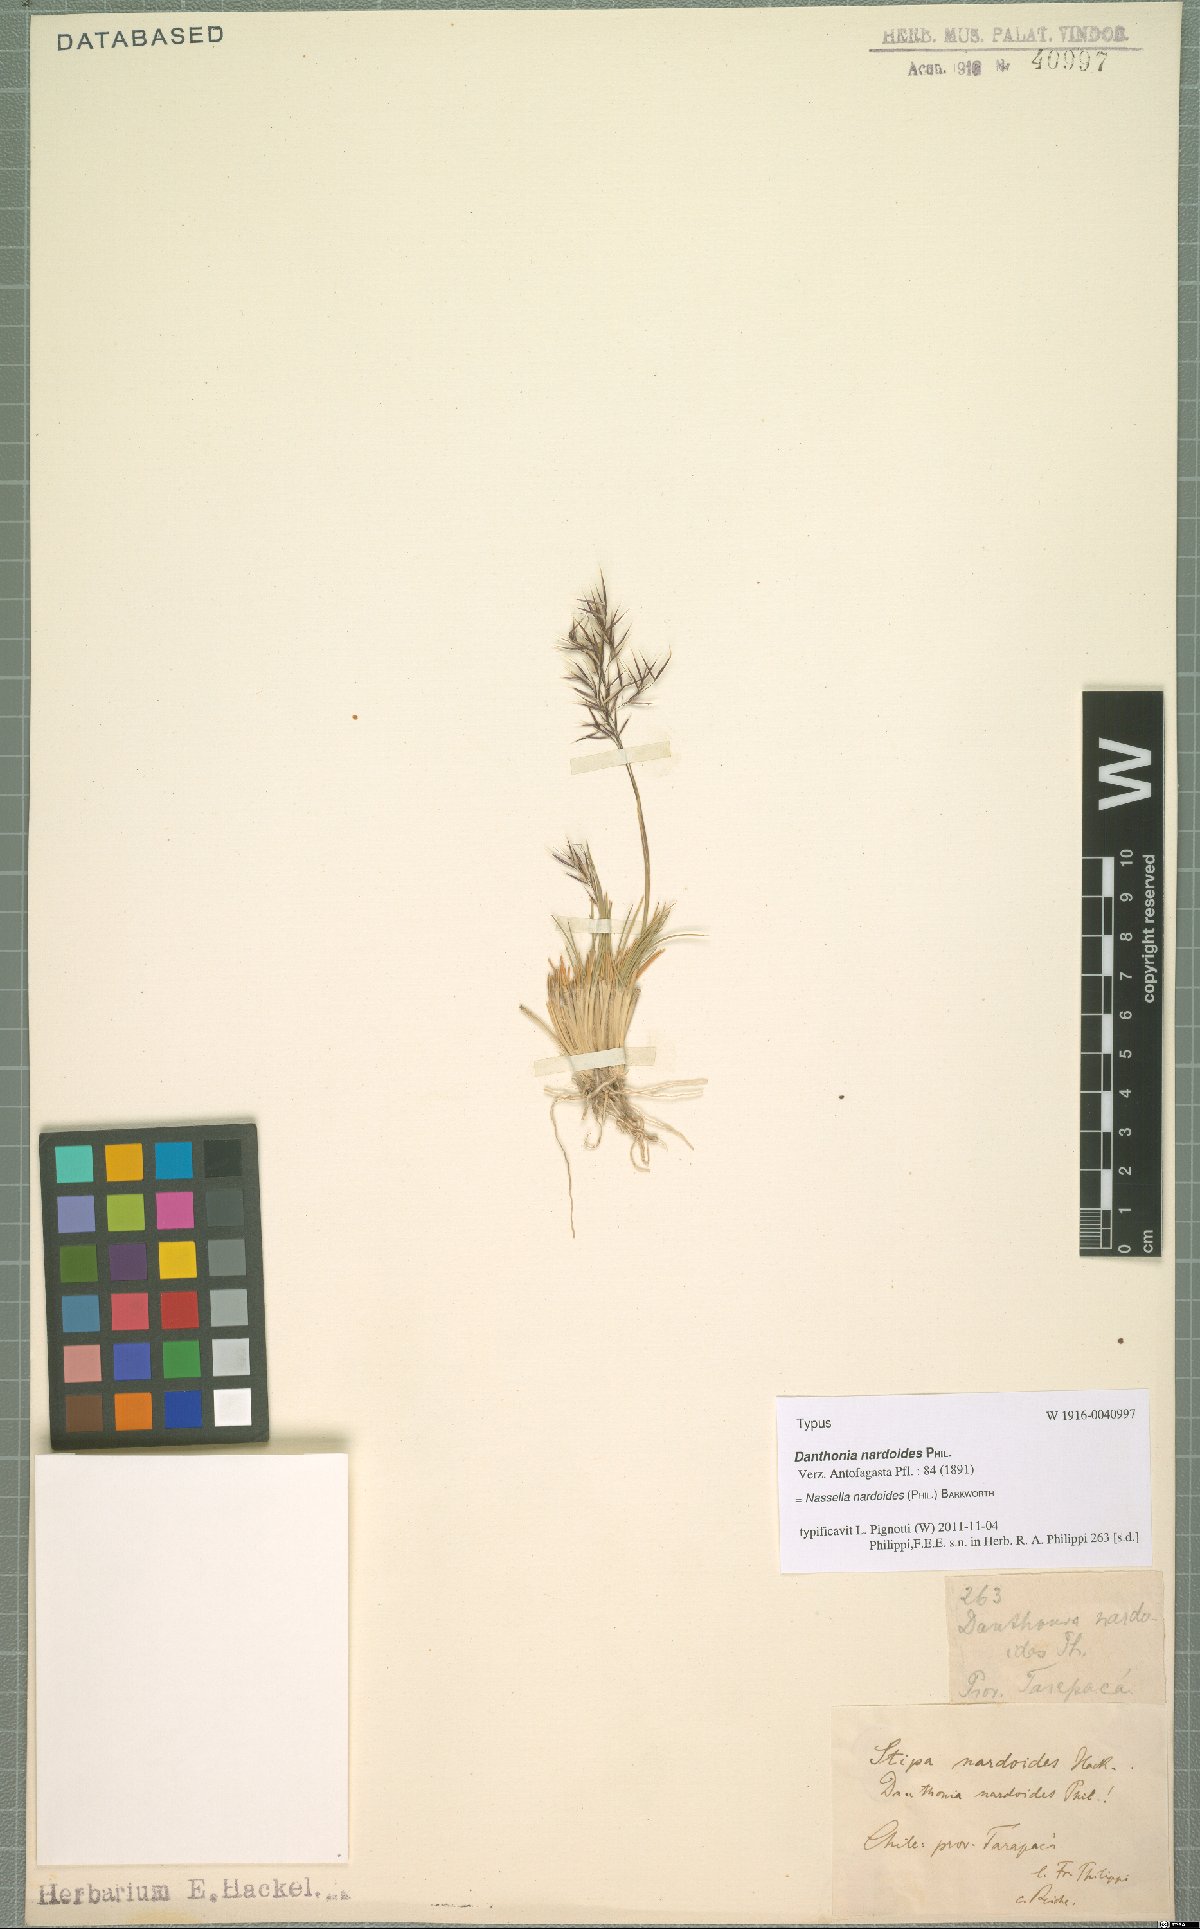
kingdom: Plantae
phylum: Tracheophyta
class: Liliopsida
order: Poales
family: Poaceae
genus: Nassella
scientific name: Nassella nardoides
